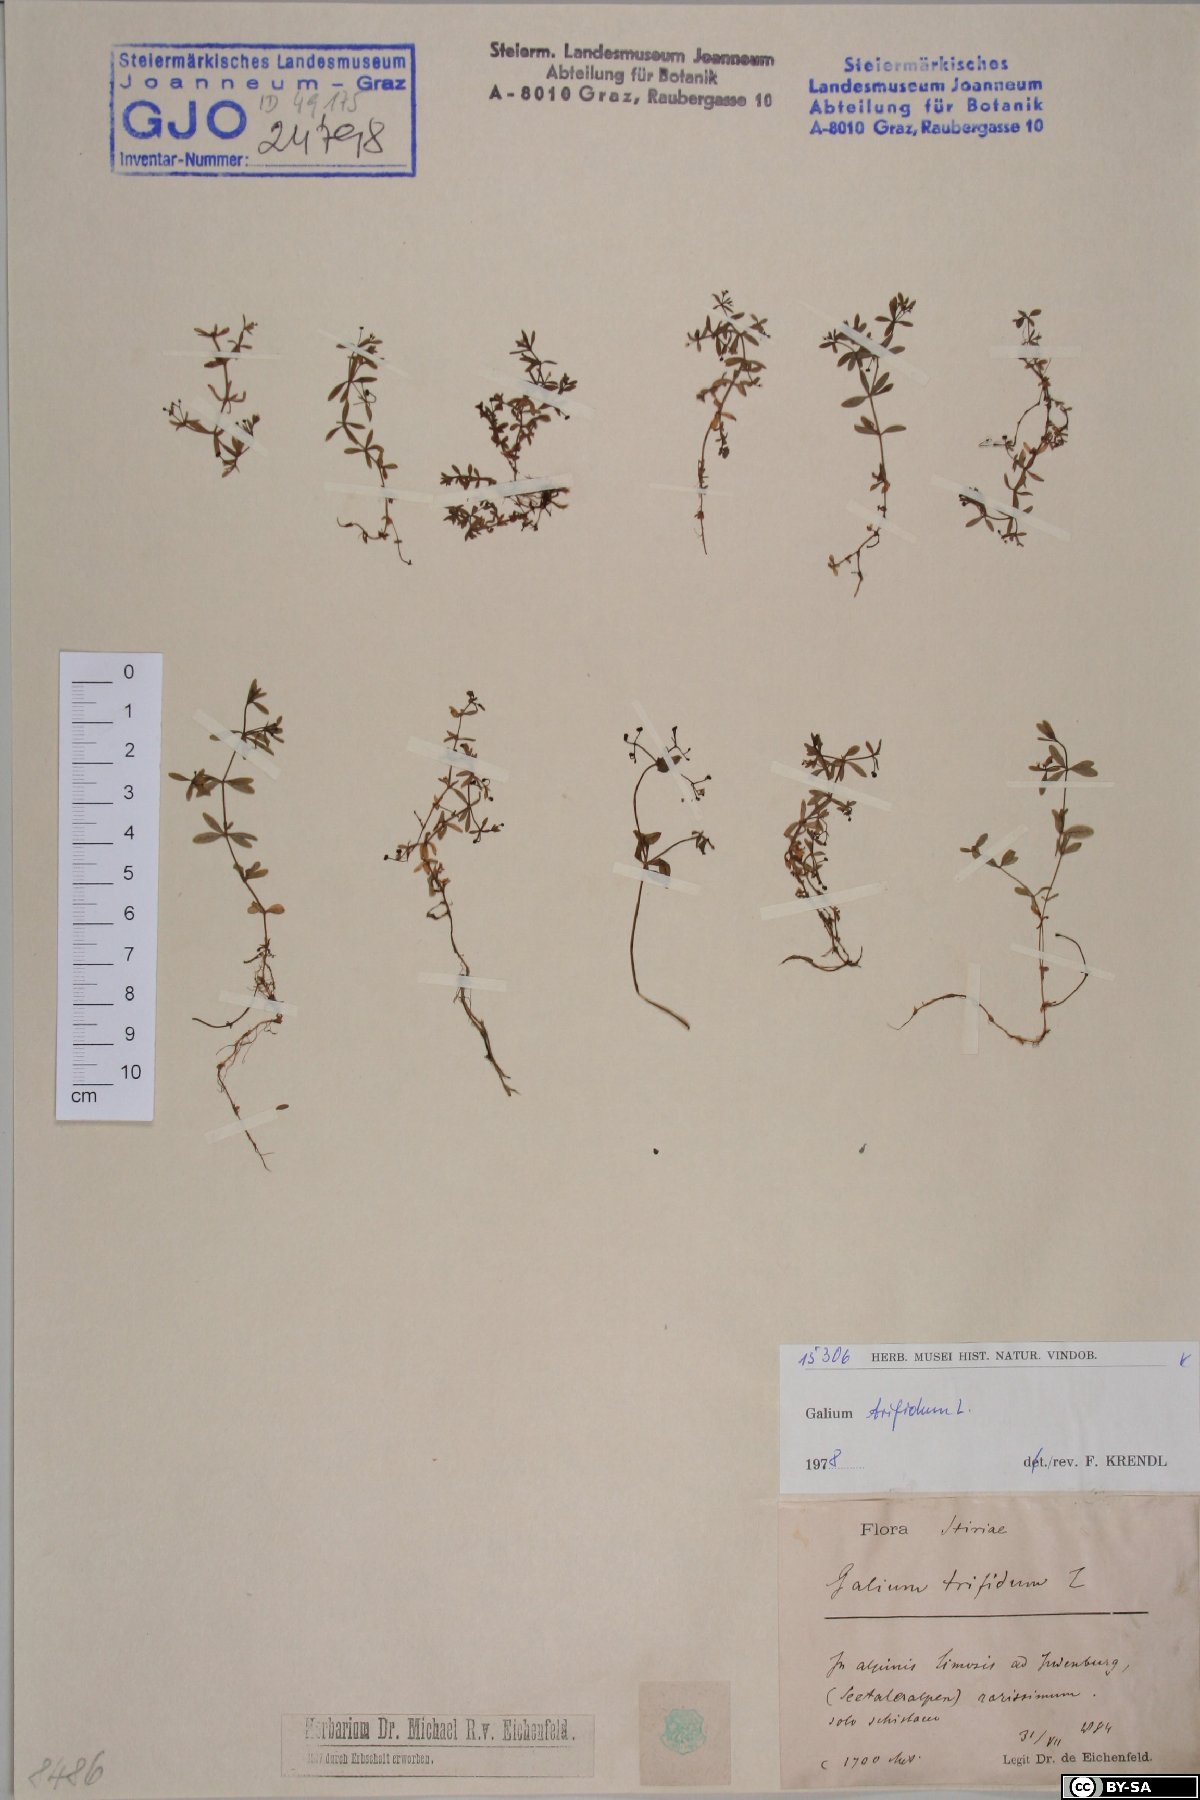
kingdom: Plantae
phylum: Tracheophyta
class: Magnoliopsida
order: Gentianales
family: Rubiaceae
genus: Galium
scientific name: Galium trifidum
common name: Small bedstraw
